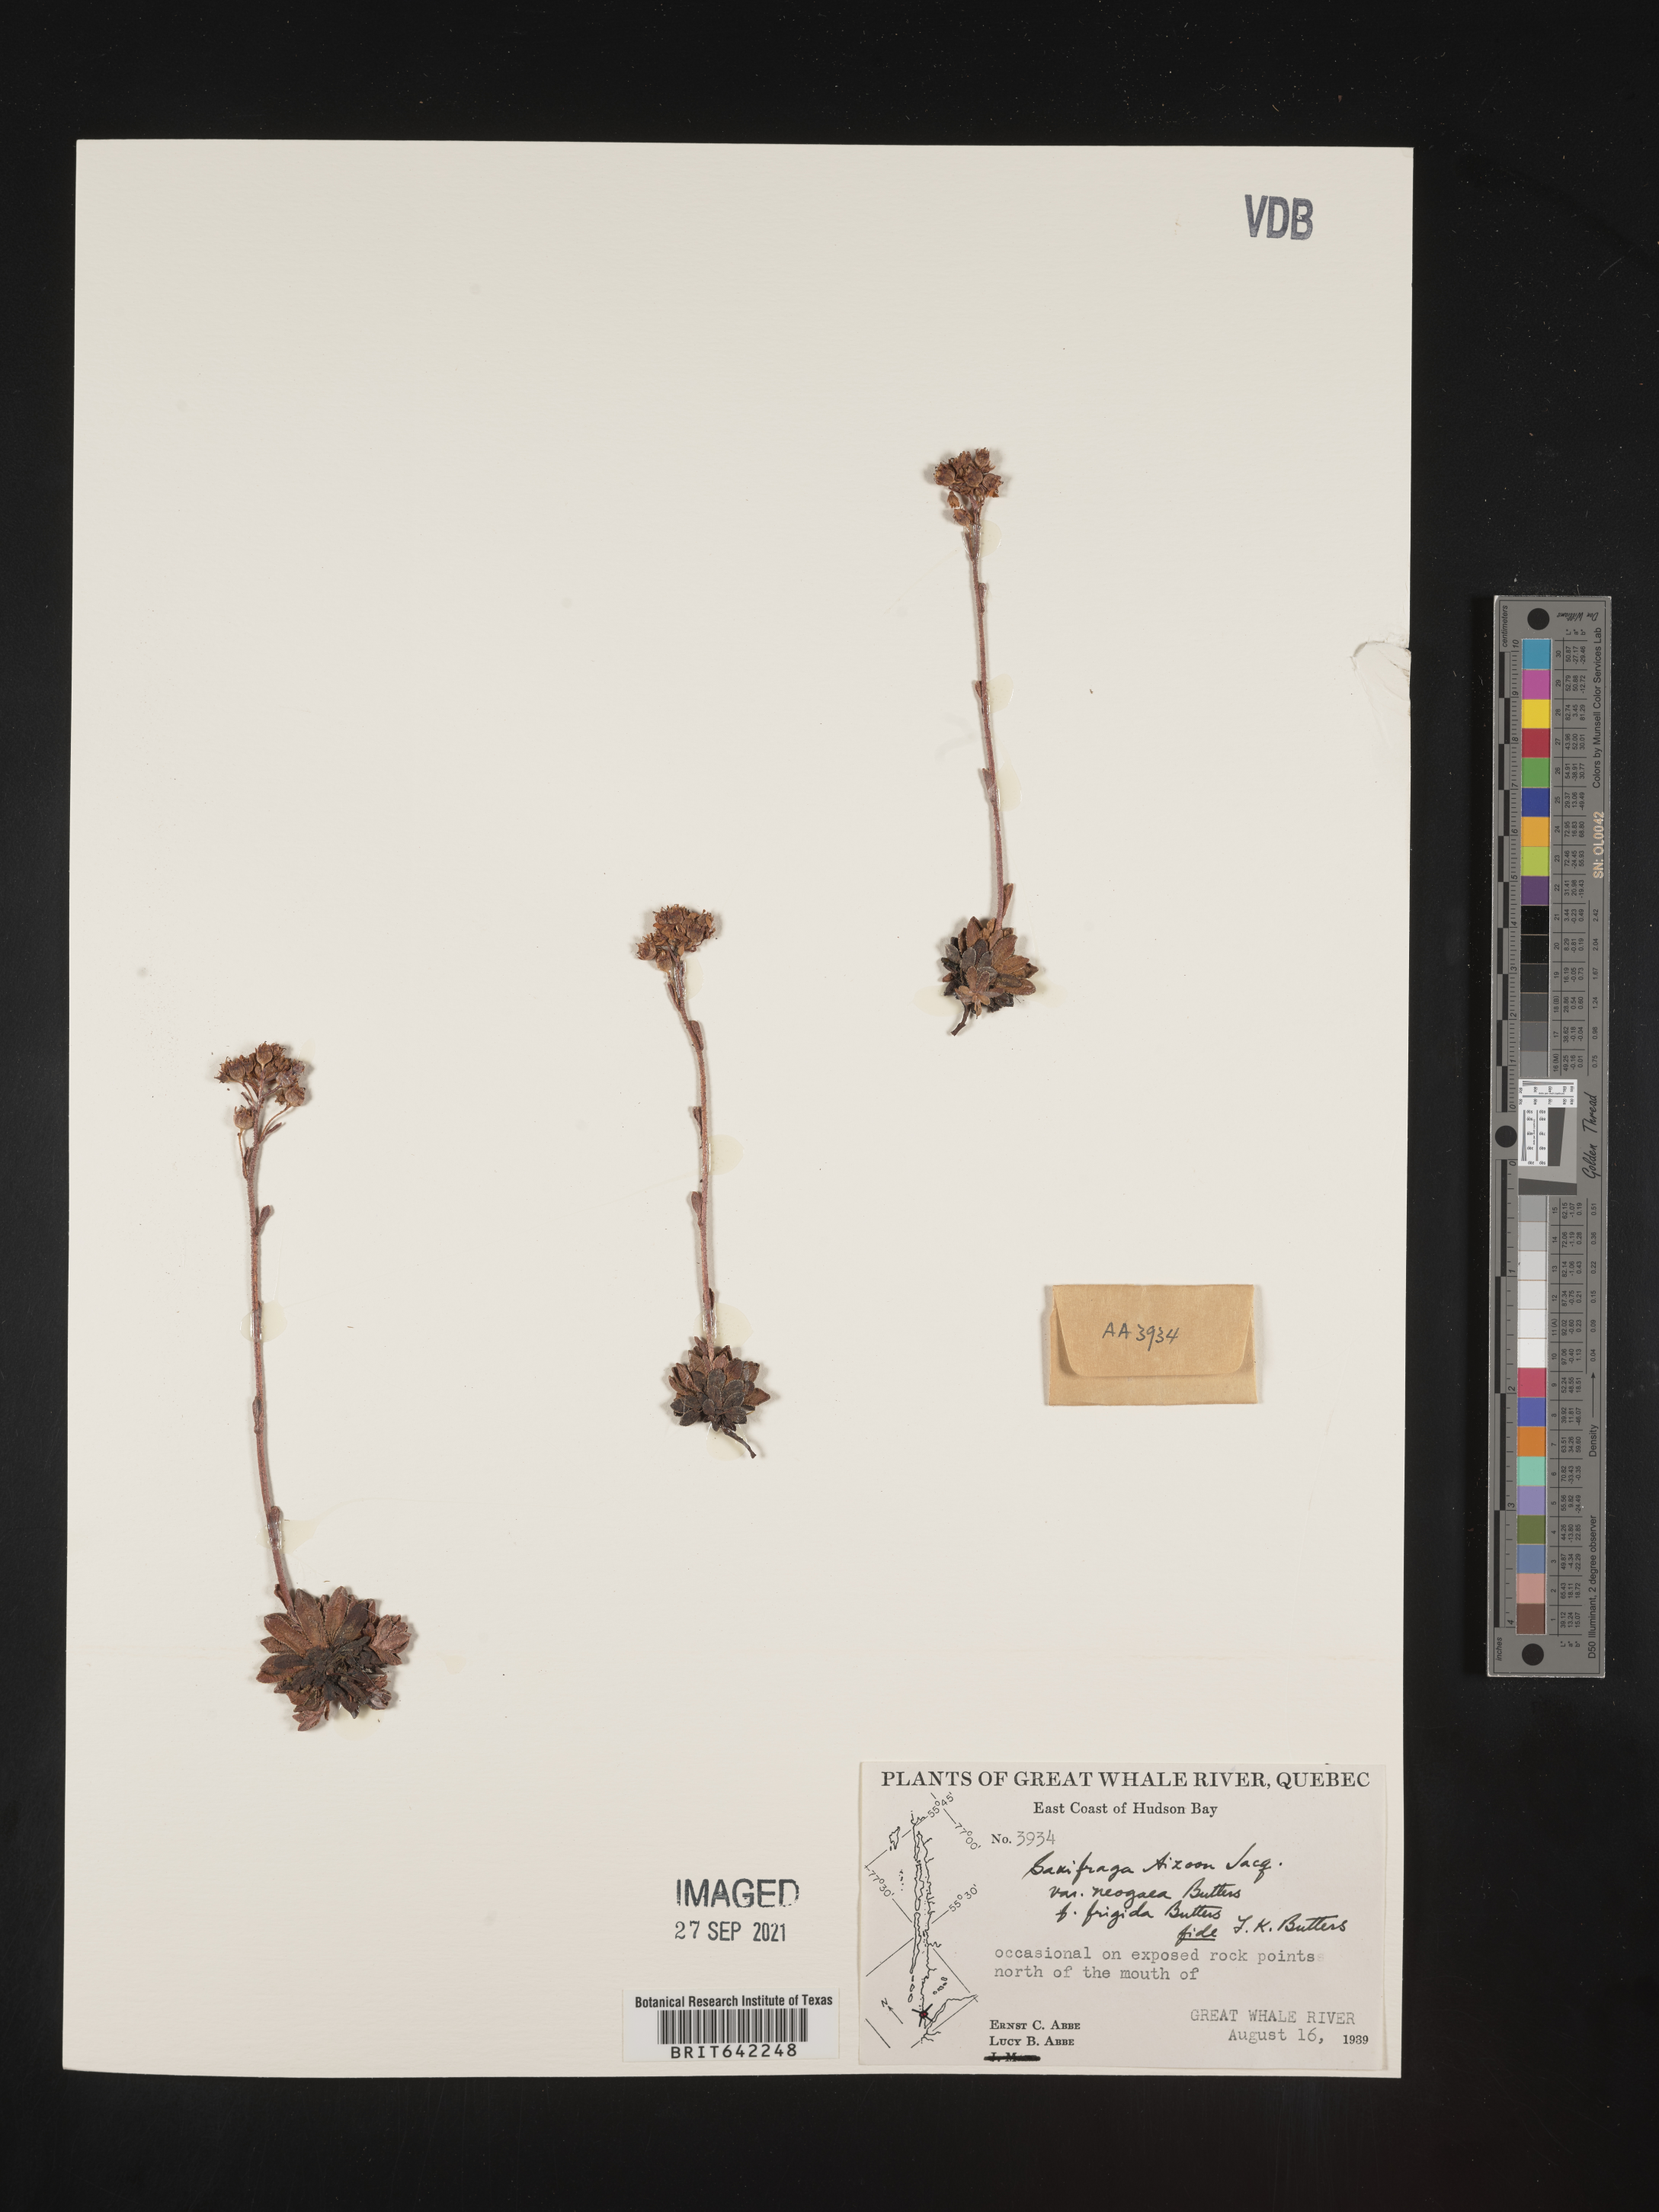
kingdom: Plantae
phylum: Tracheophyta
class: Magnoliopsida
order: Saxifragales
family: Saxifragaceae
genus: Saxifraga
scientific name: Saxifraga
